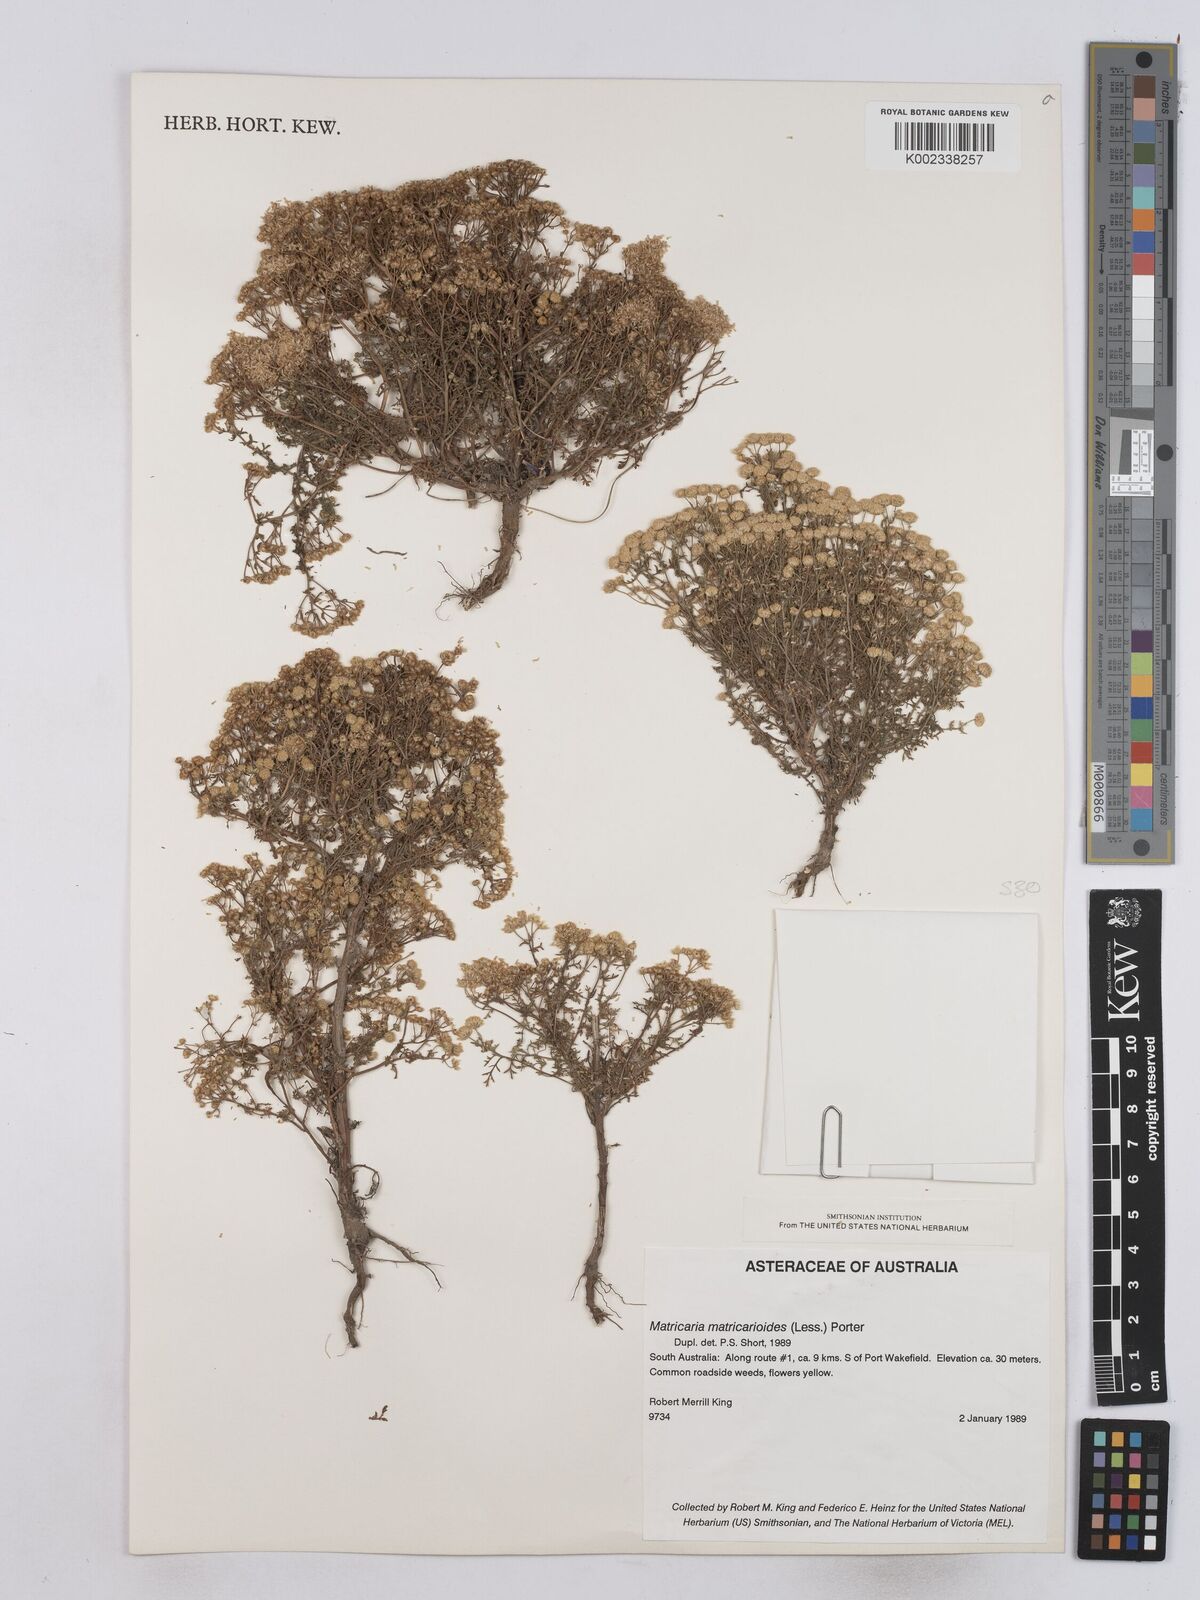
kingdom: Plantae
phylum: Tracheophyta
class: Magnoliopsida
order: Asterales
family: Asteraceae
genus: Matricaria
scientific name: Matricaria discoidea
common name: Disc mayweed
